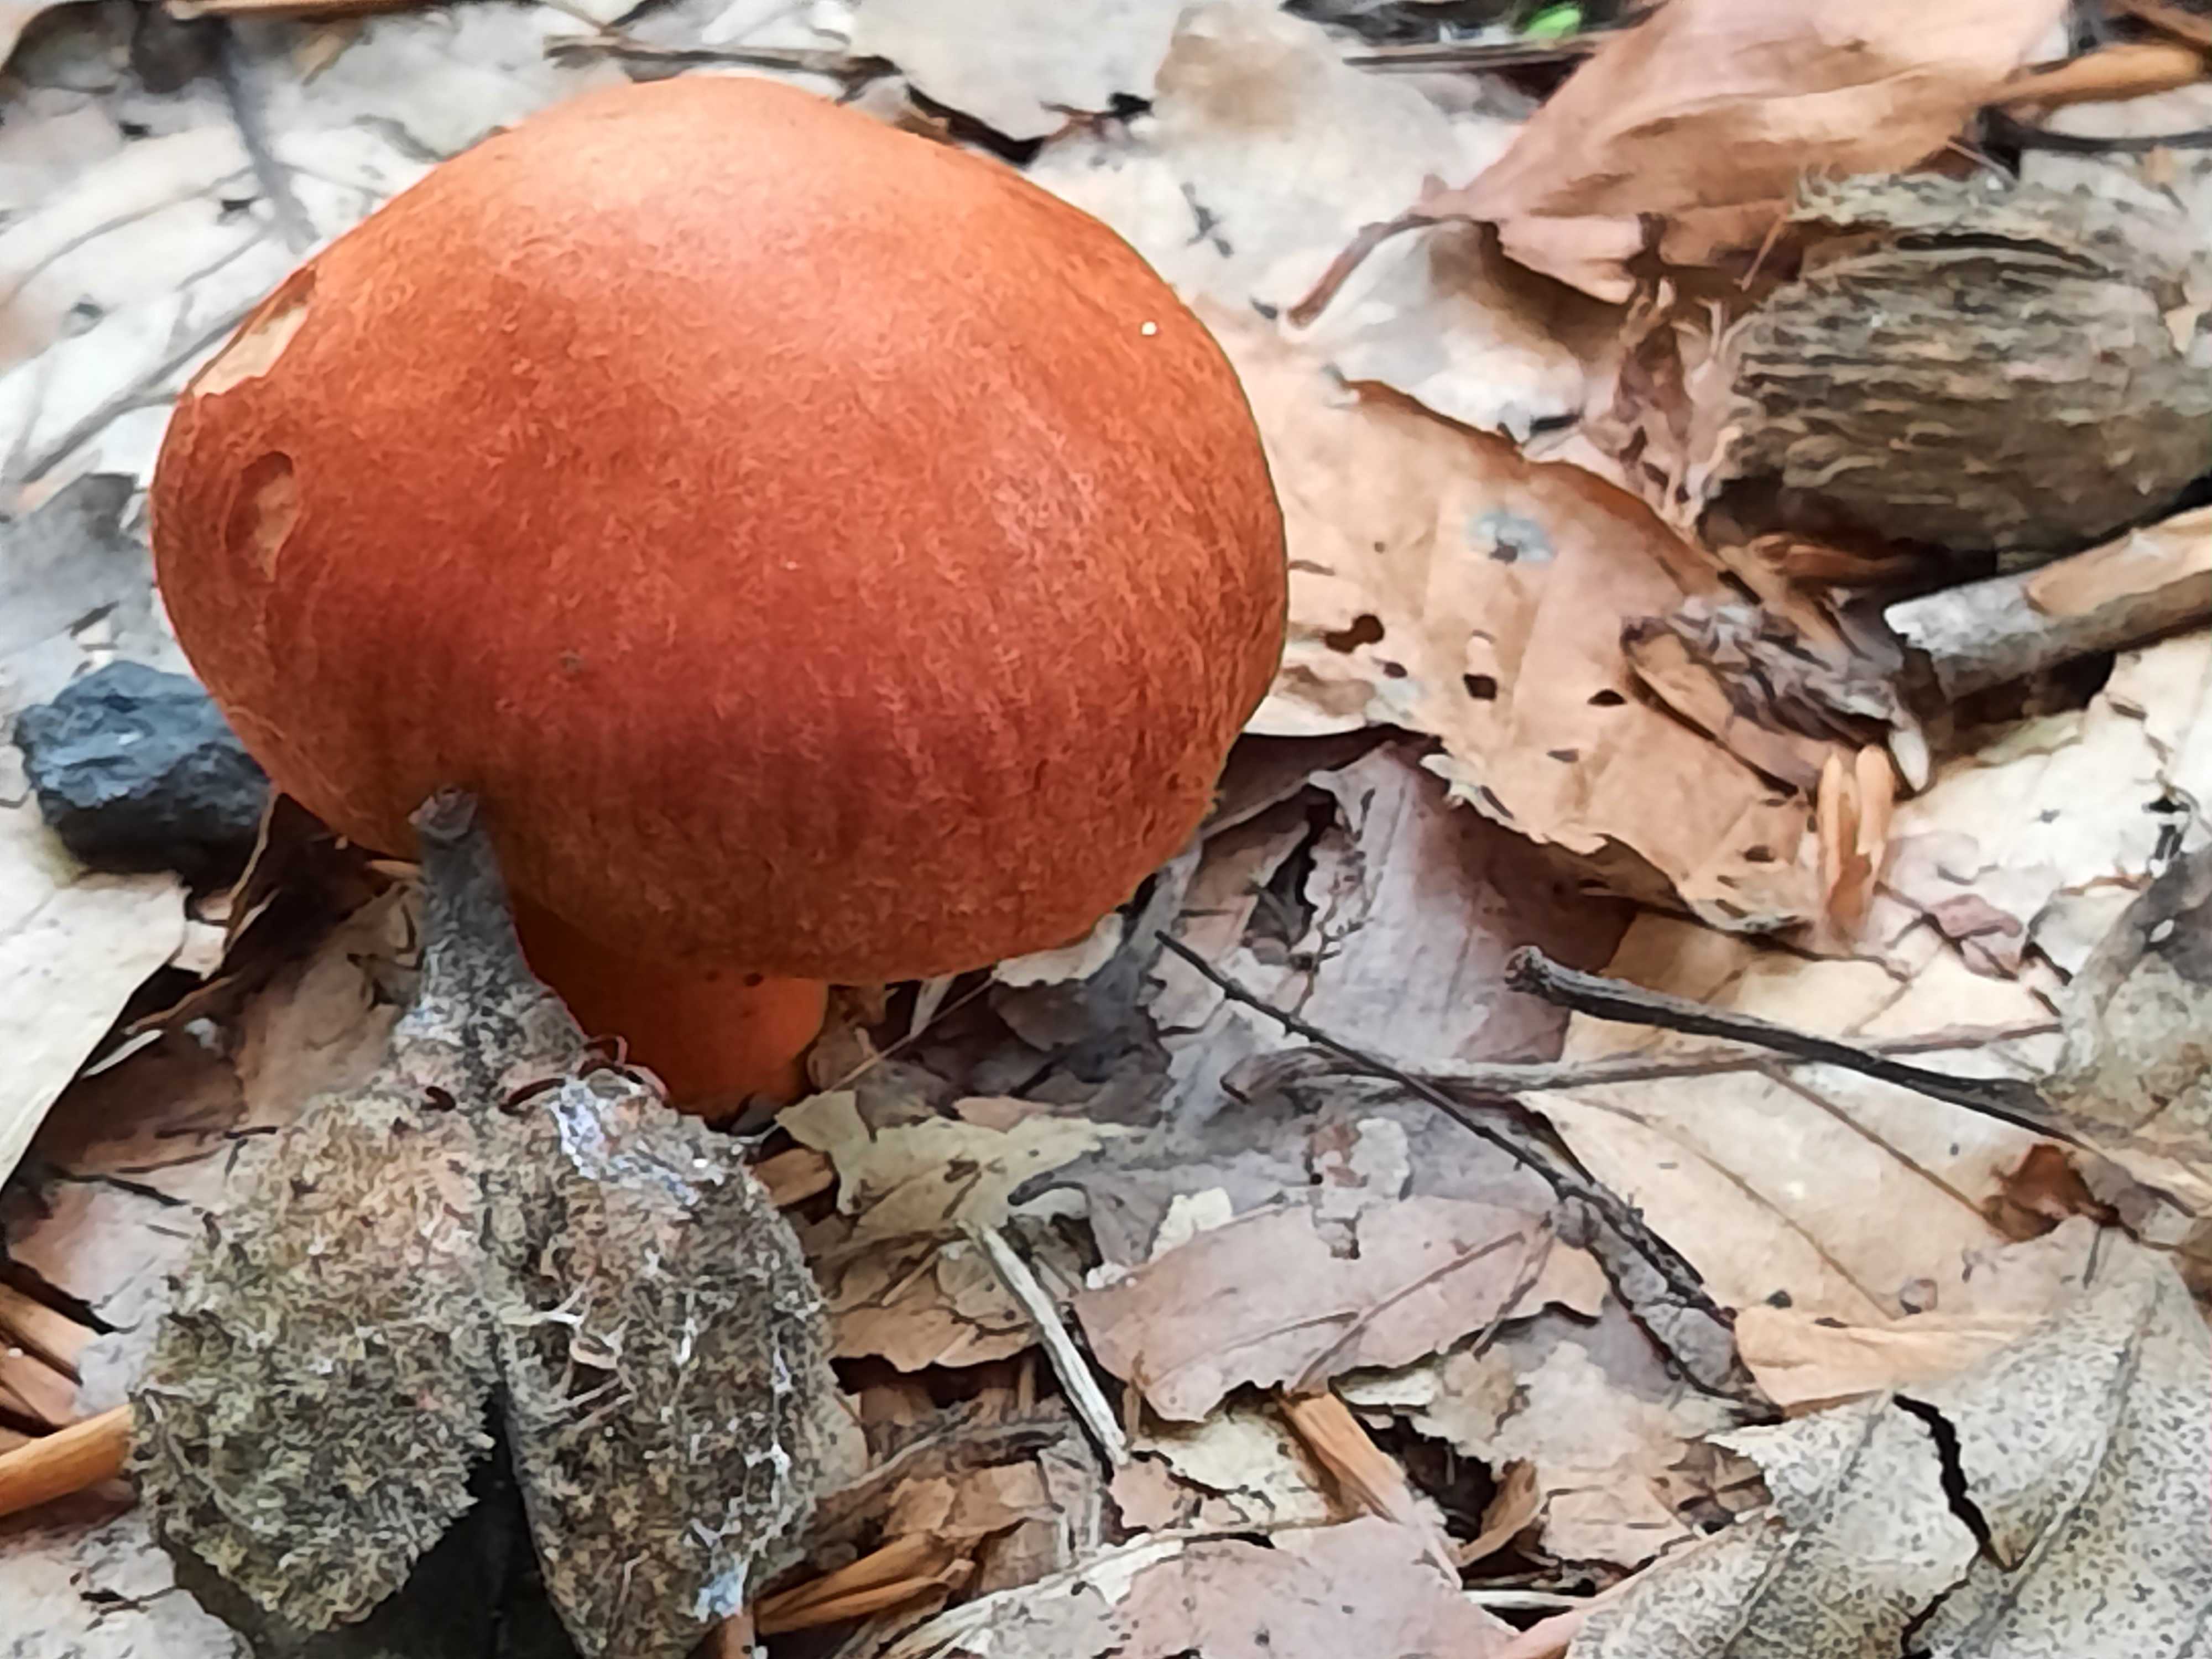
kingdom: Fungi
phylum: Basidiomycota
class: Agaricomycetes
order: Agaricales
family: Cortinariaceae
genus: Cortinarius
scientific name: Cortinarius cinnabarinus
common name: cinnober-slørhat
